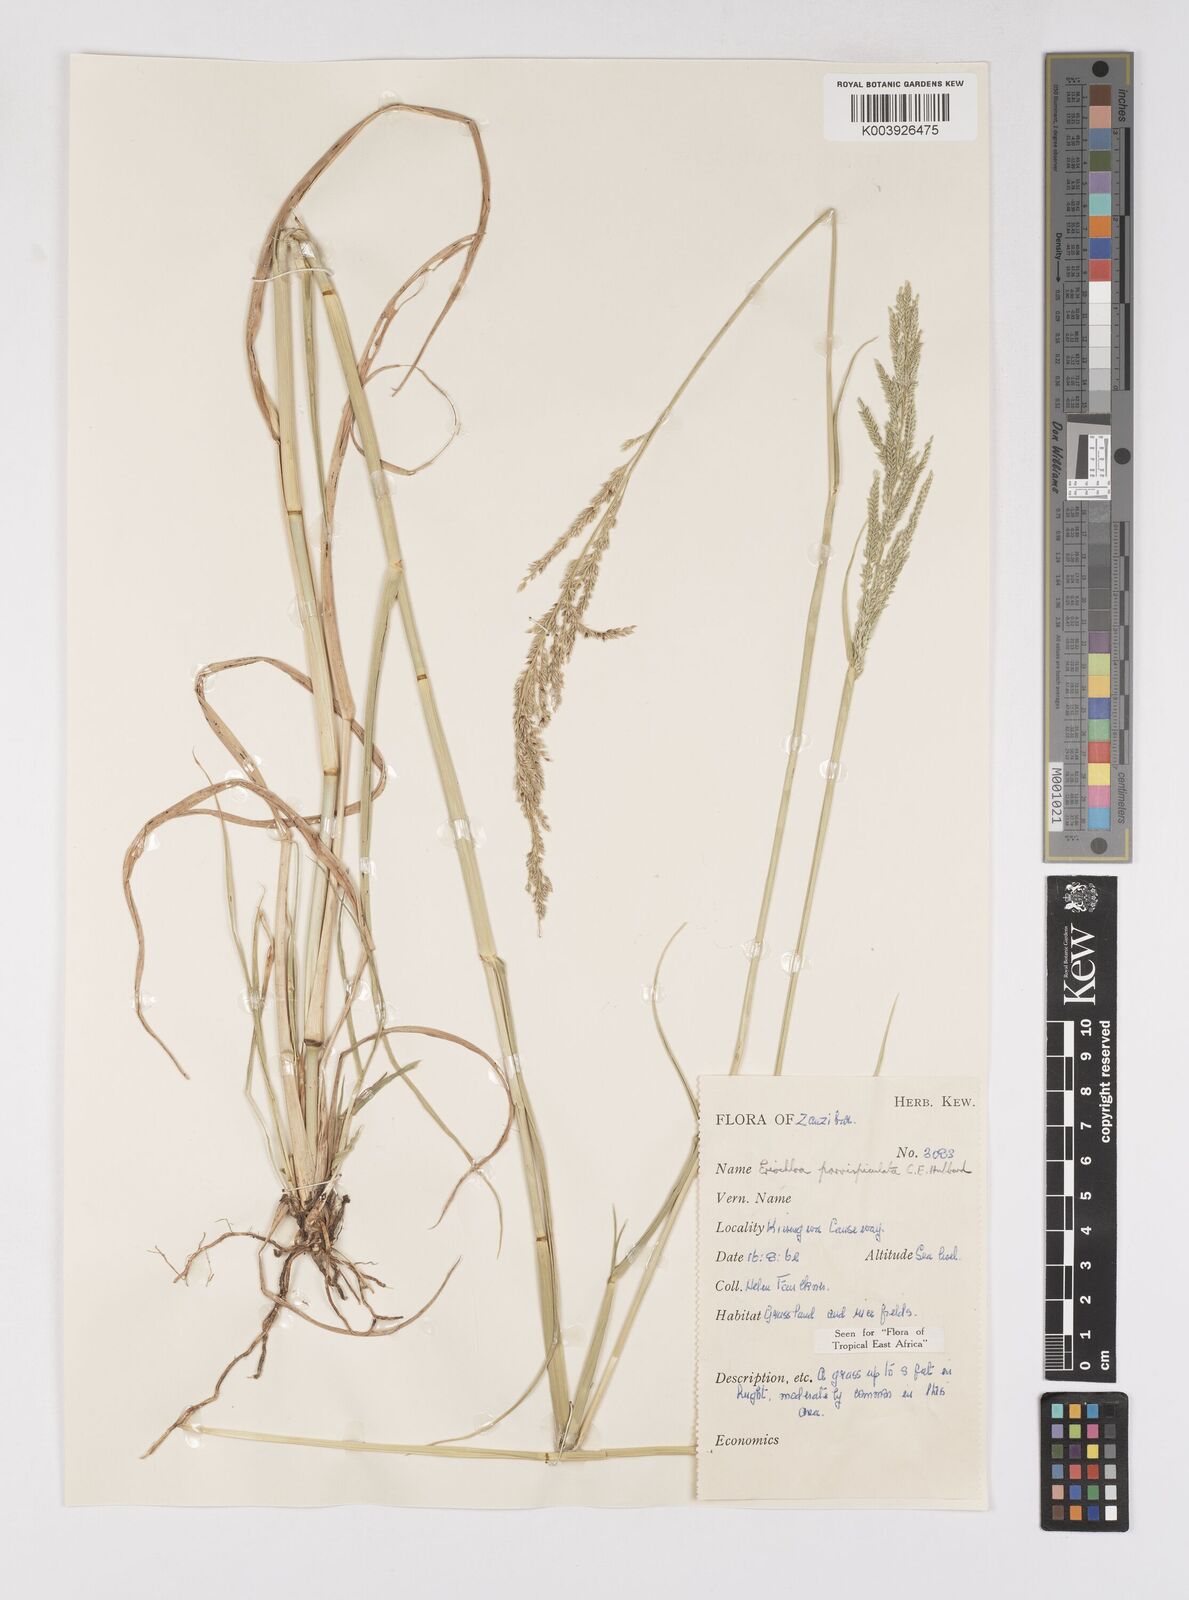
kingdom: Plantae
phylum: Tracheophyta
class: Liliopsida
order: Poales
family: Poaceae
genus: Eriochloa
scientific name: Eriochloa parvispiculata
